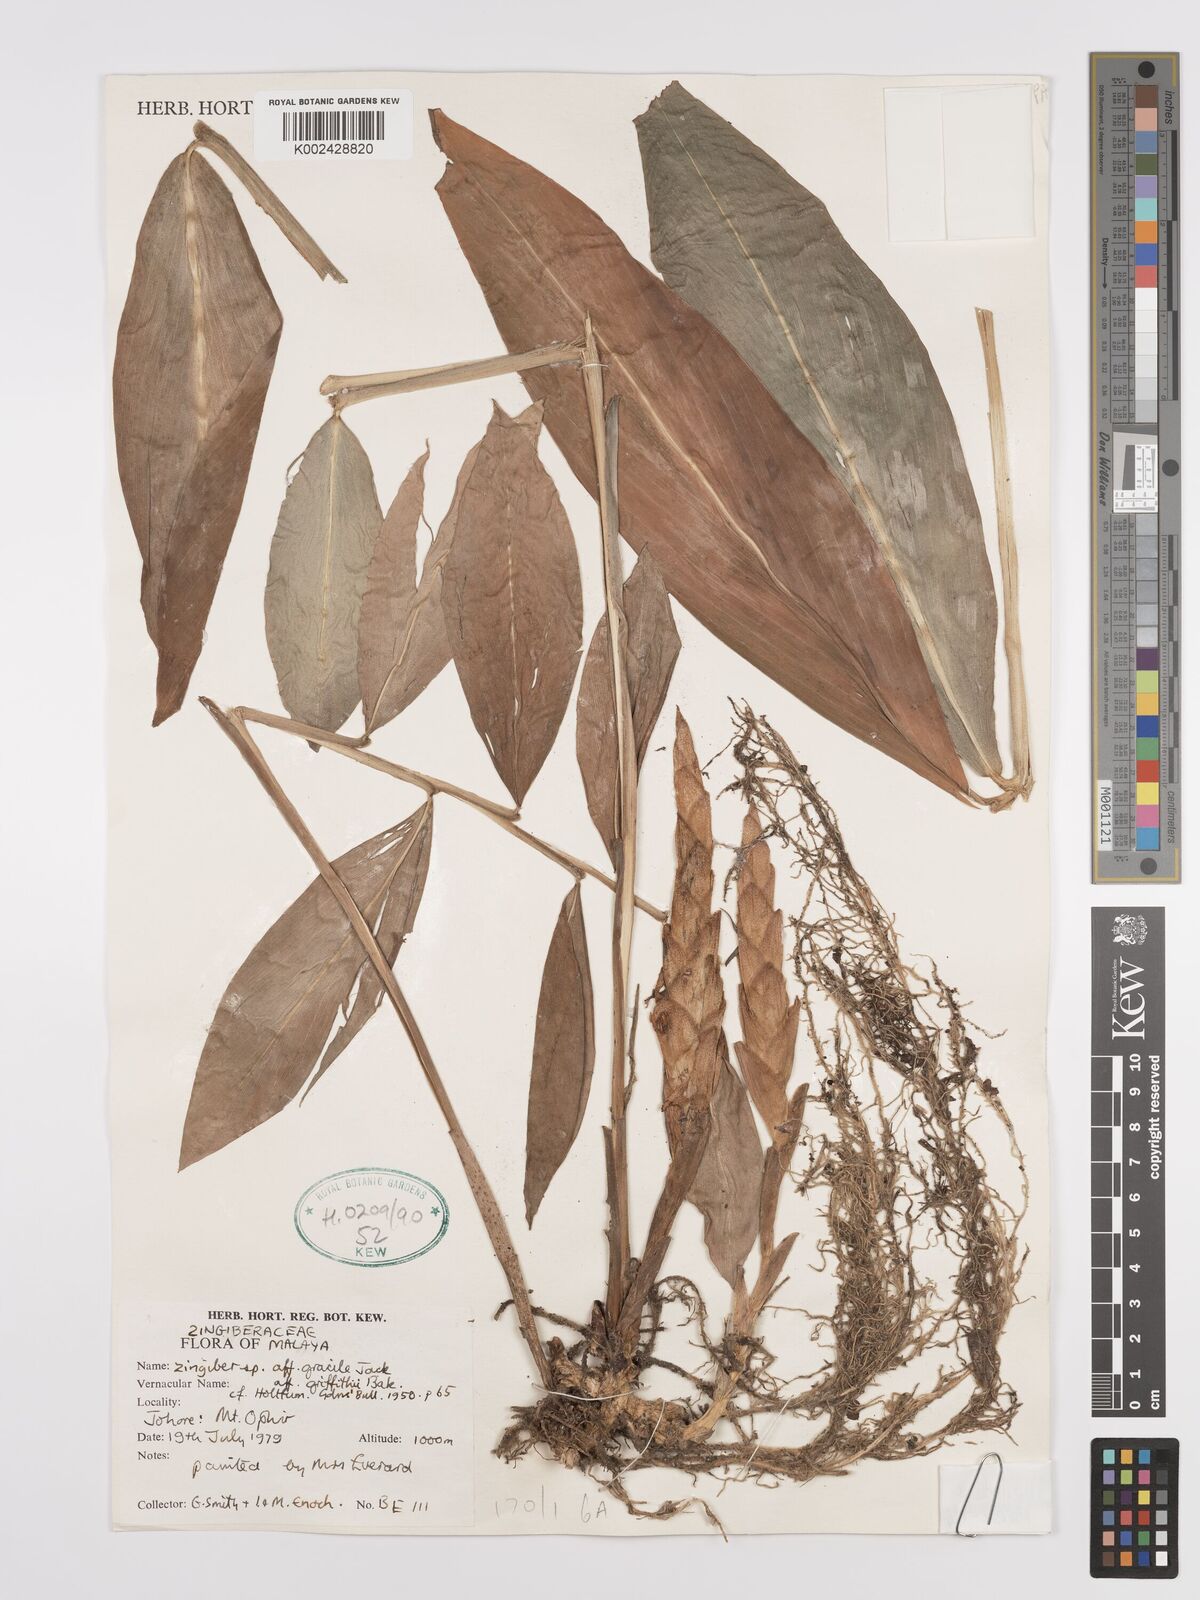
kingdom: Plantae
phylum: Tracheophyta
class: Liliopsida
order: Zingiberales
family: Zingiberaceae
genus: Zingiber
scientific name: Zingiber griffithii
